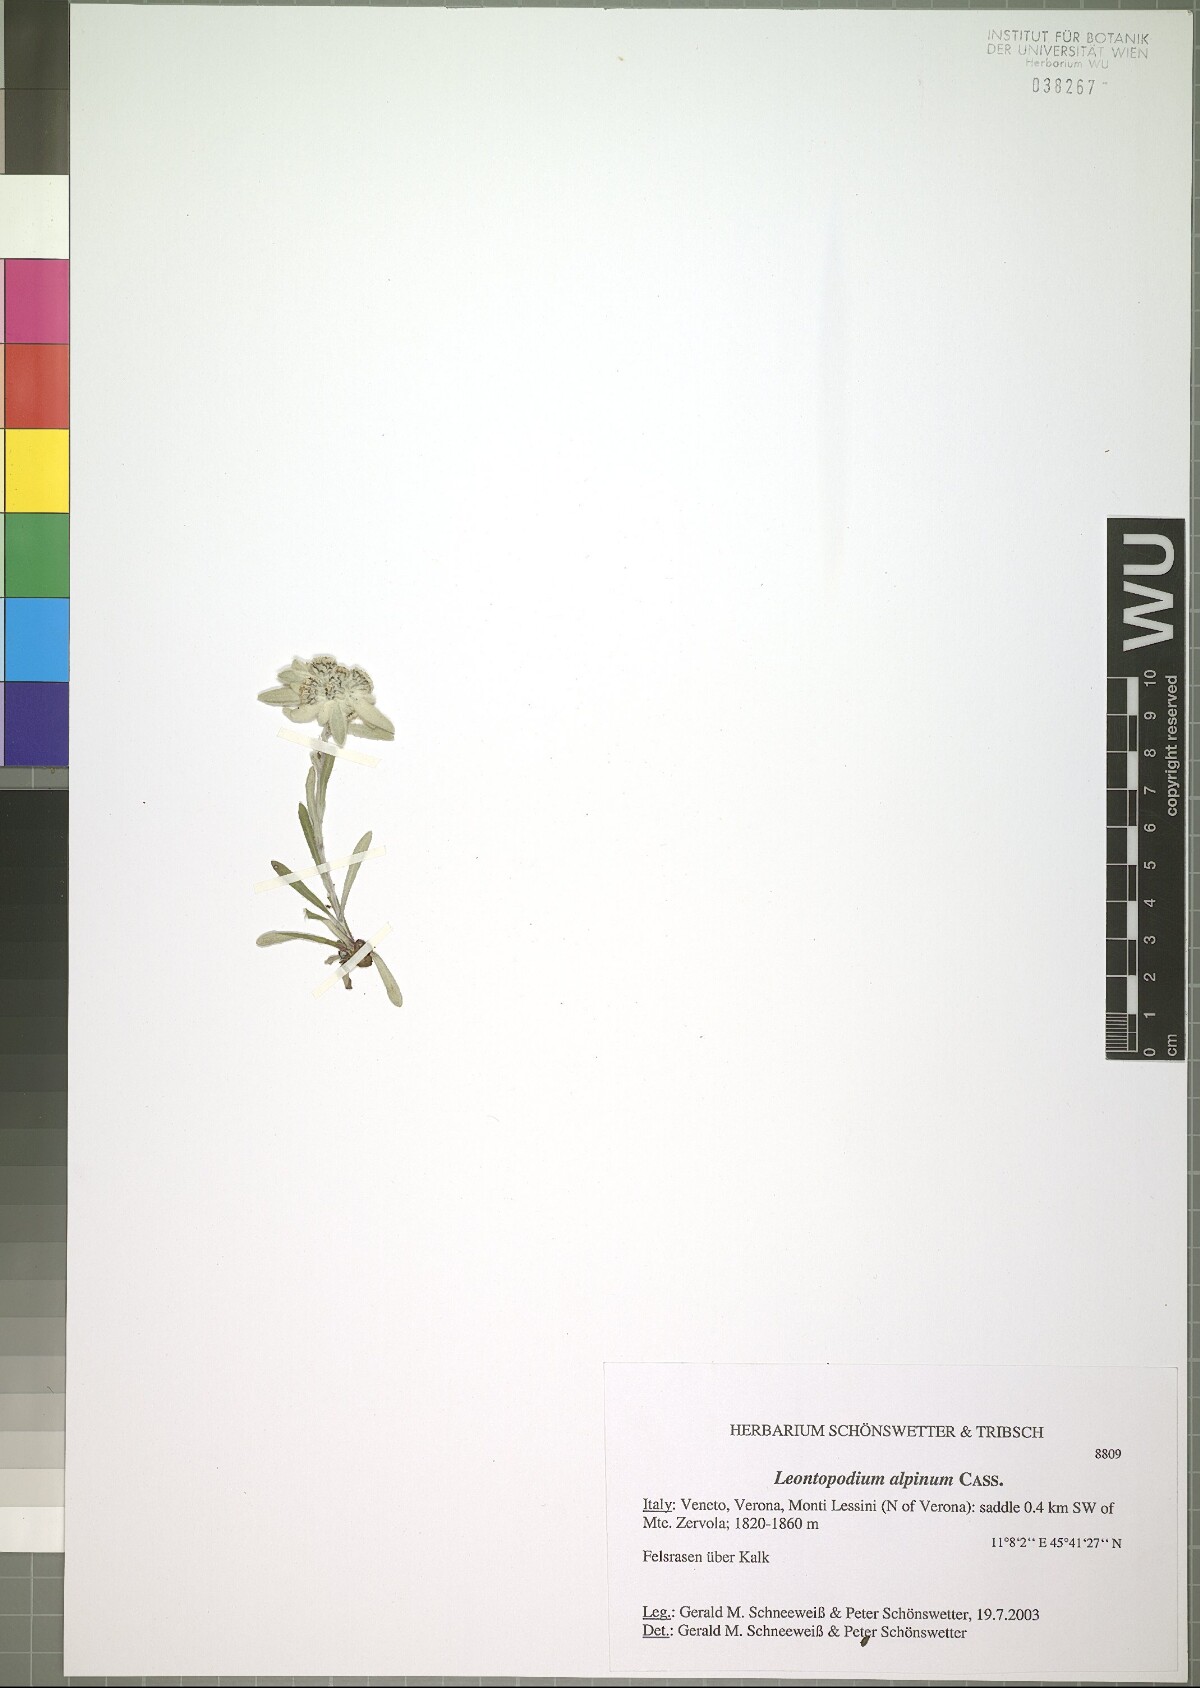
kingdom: Plantae
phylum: Tracheophyta
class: Magnoliopsida
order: Asterales
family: Asteraceae
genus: Leontopodium
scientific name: Leontopodium nivale
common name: Edelweiss
